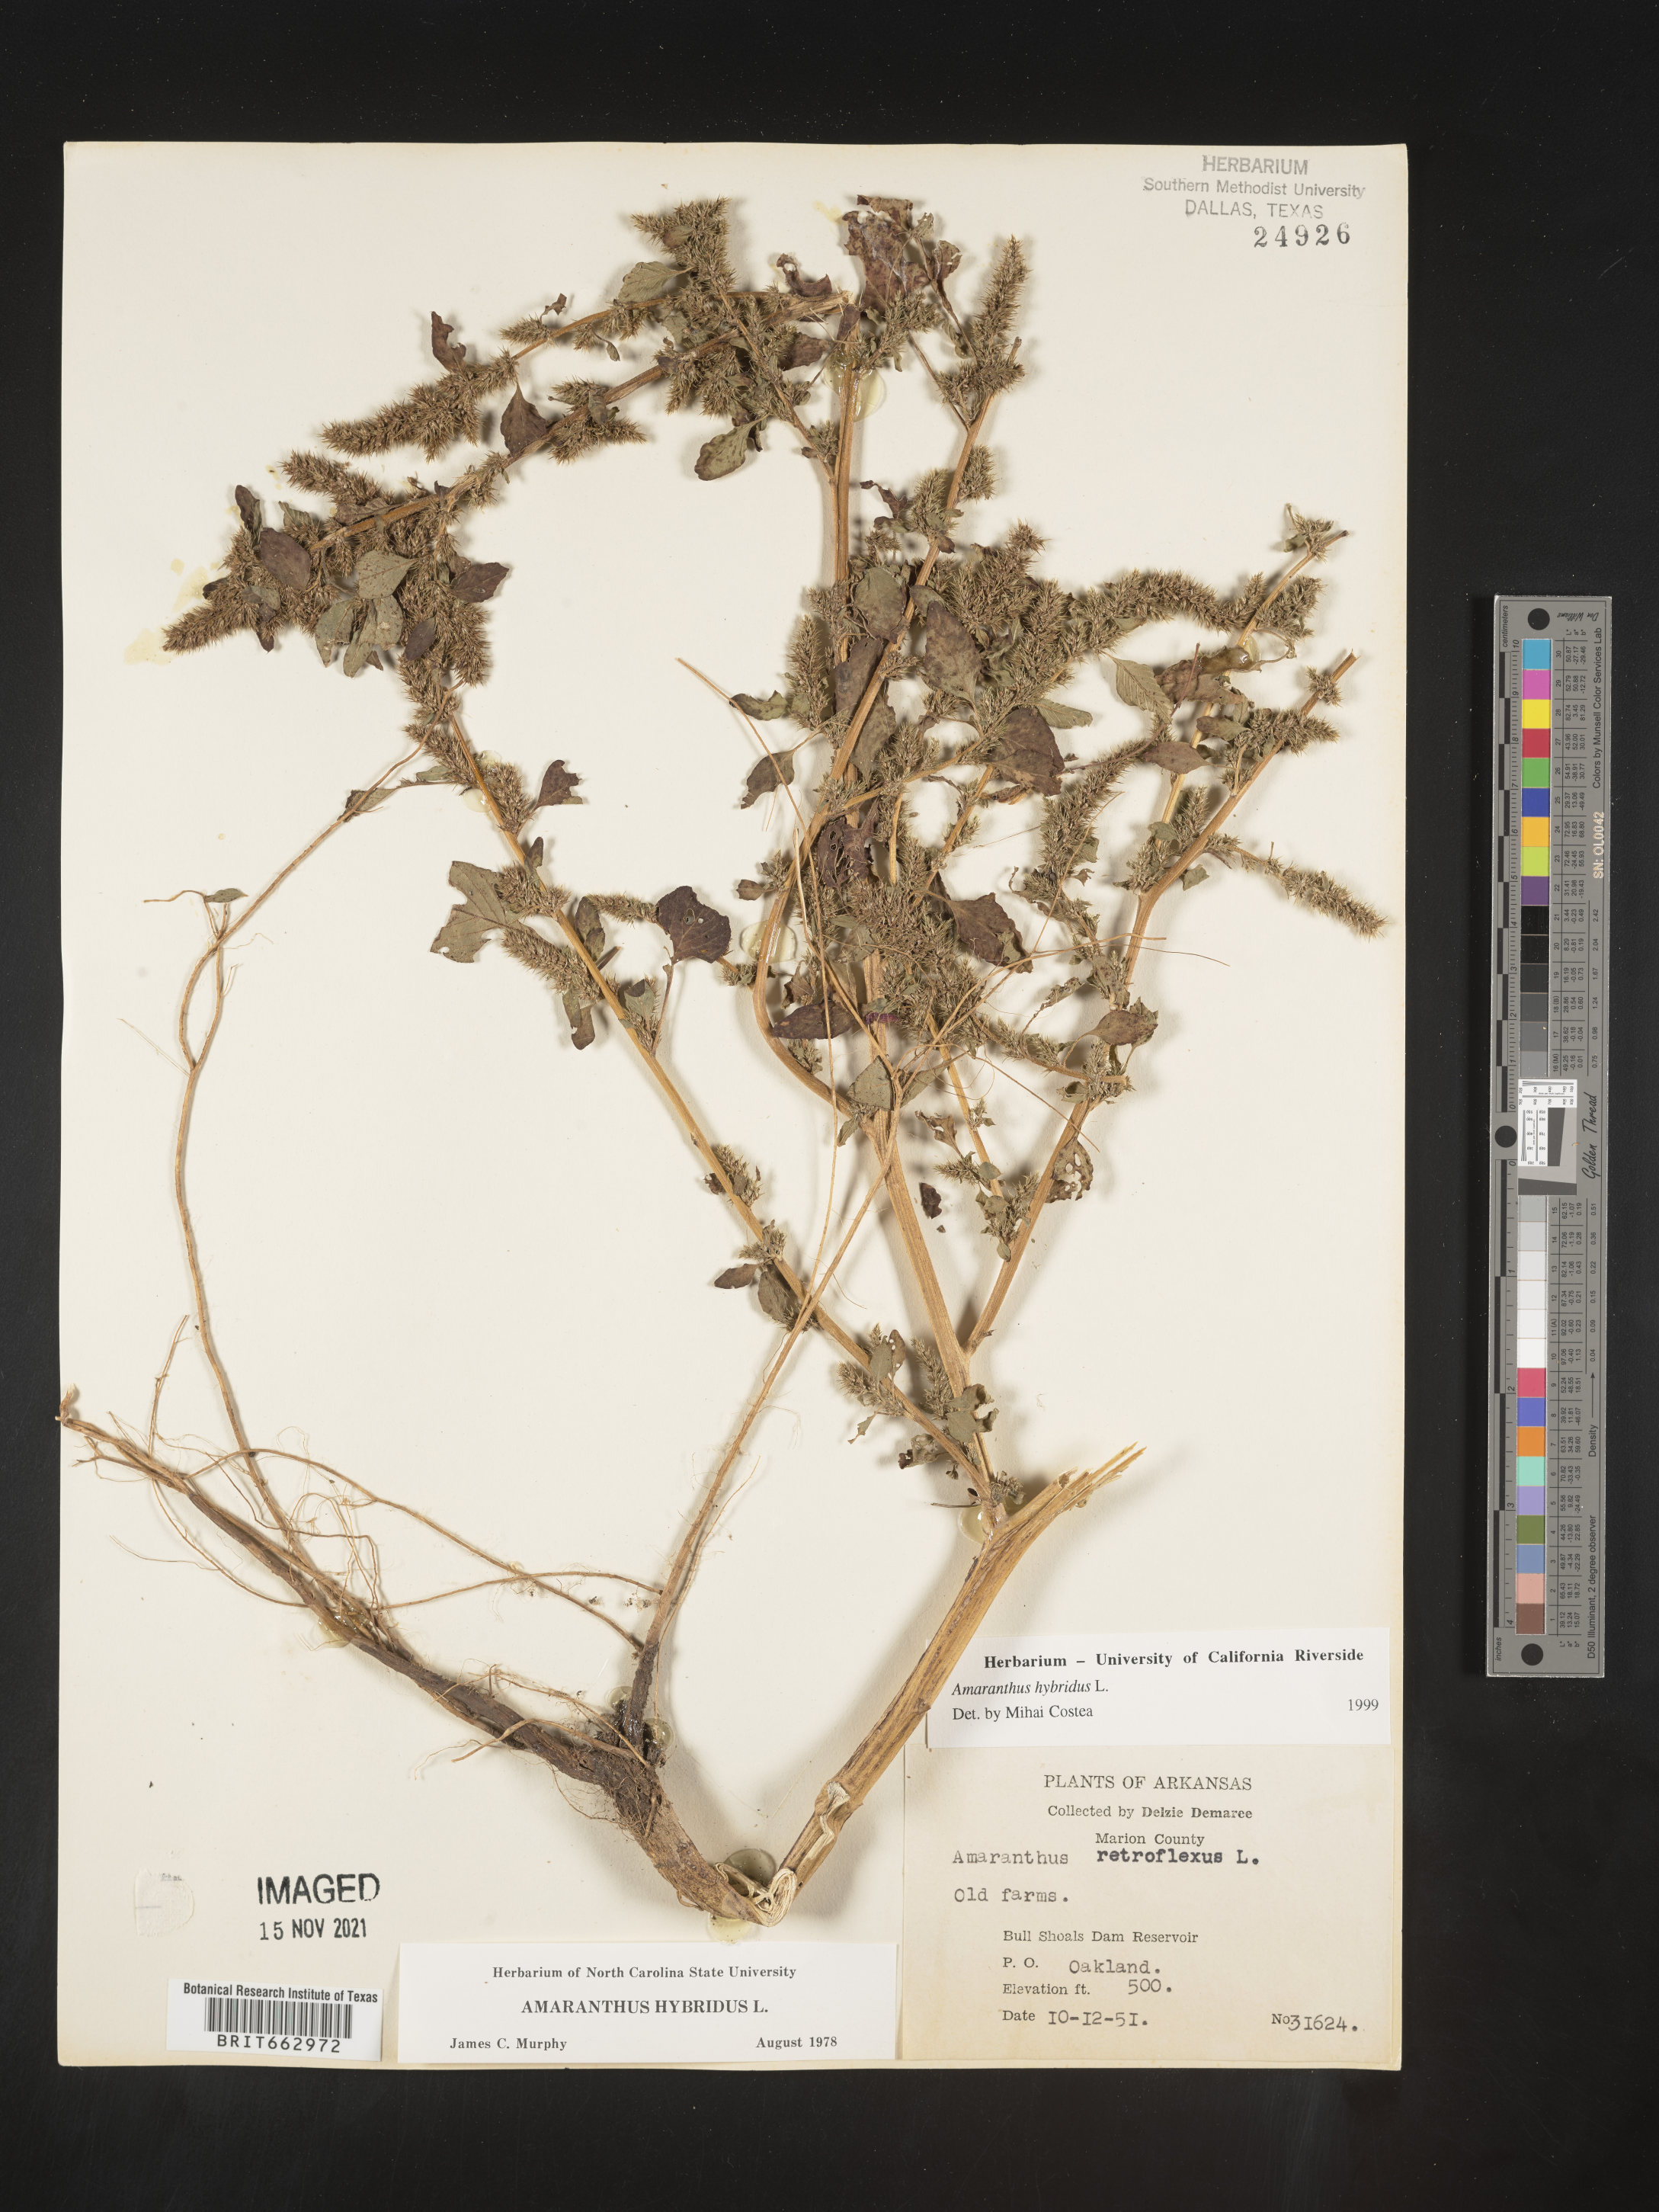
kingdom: Plantae
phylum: Tracheophyta
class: Magnoliopsida
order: Caryophyllales
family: Amaranthaceae
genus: Amaranthus
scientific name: Amaranthus hybridus
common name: Green amaranth
